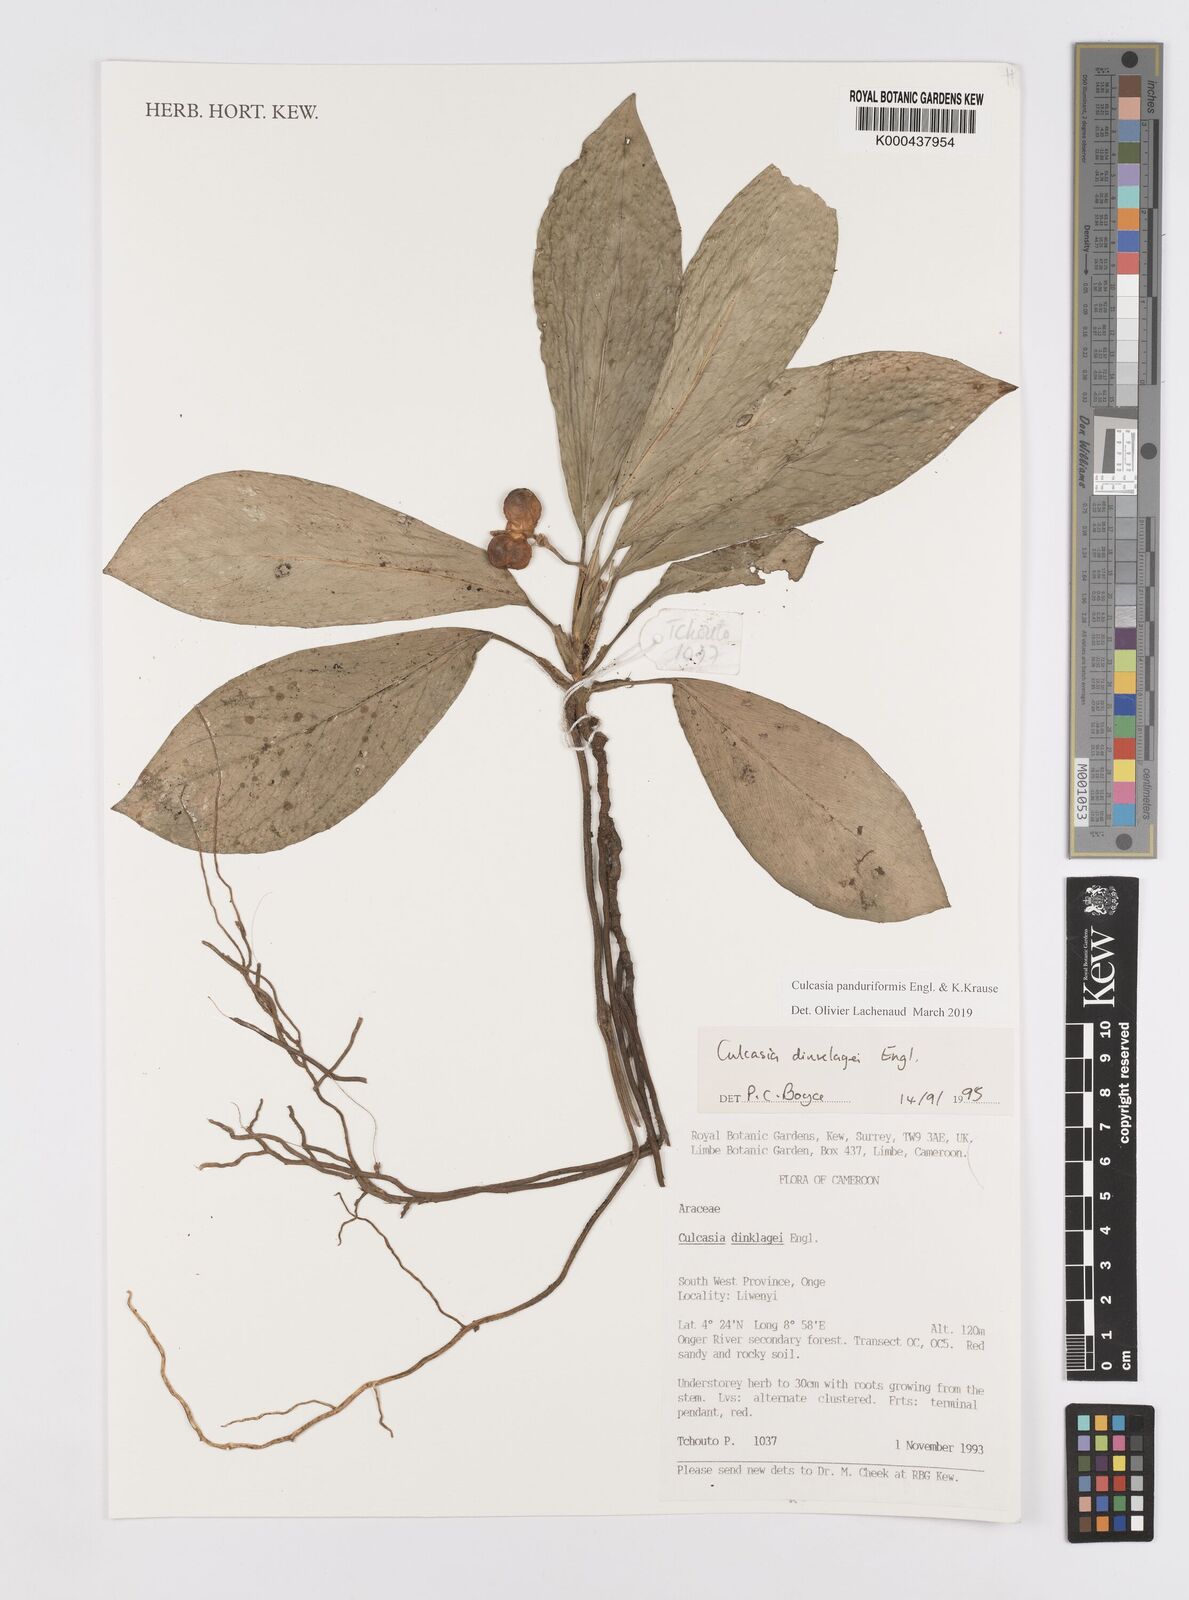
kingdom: Plantae
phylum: Tracheophyta
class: Liliopsida
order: Alismatales
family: Araceae
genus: Culcasia
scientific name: Culcasia panduriformis
